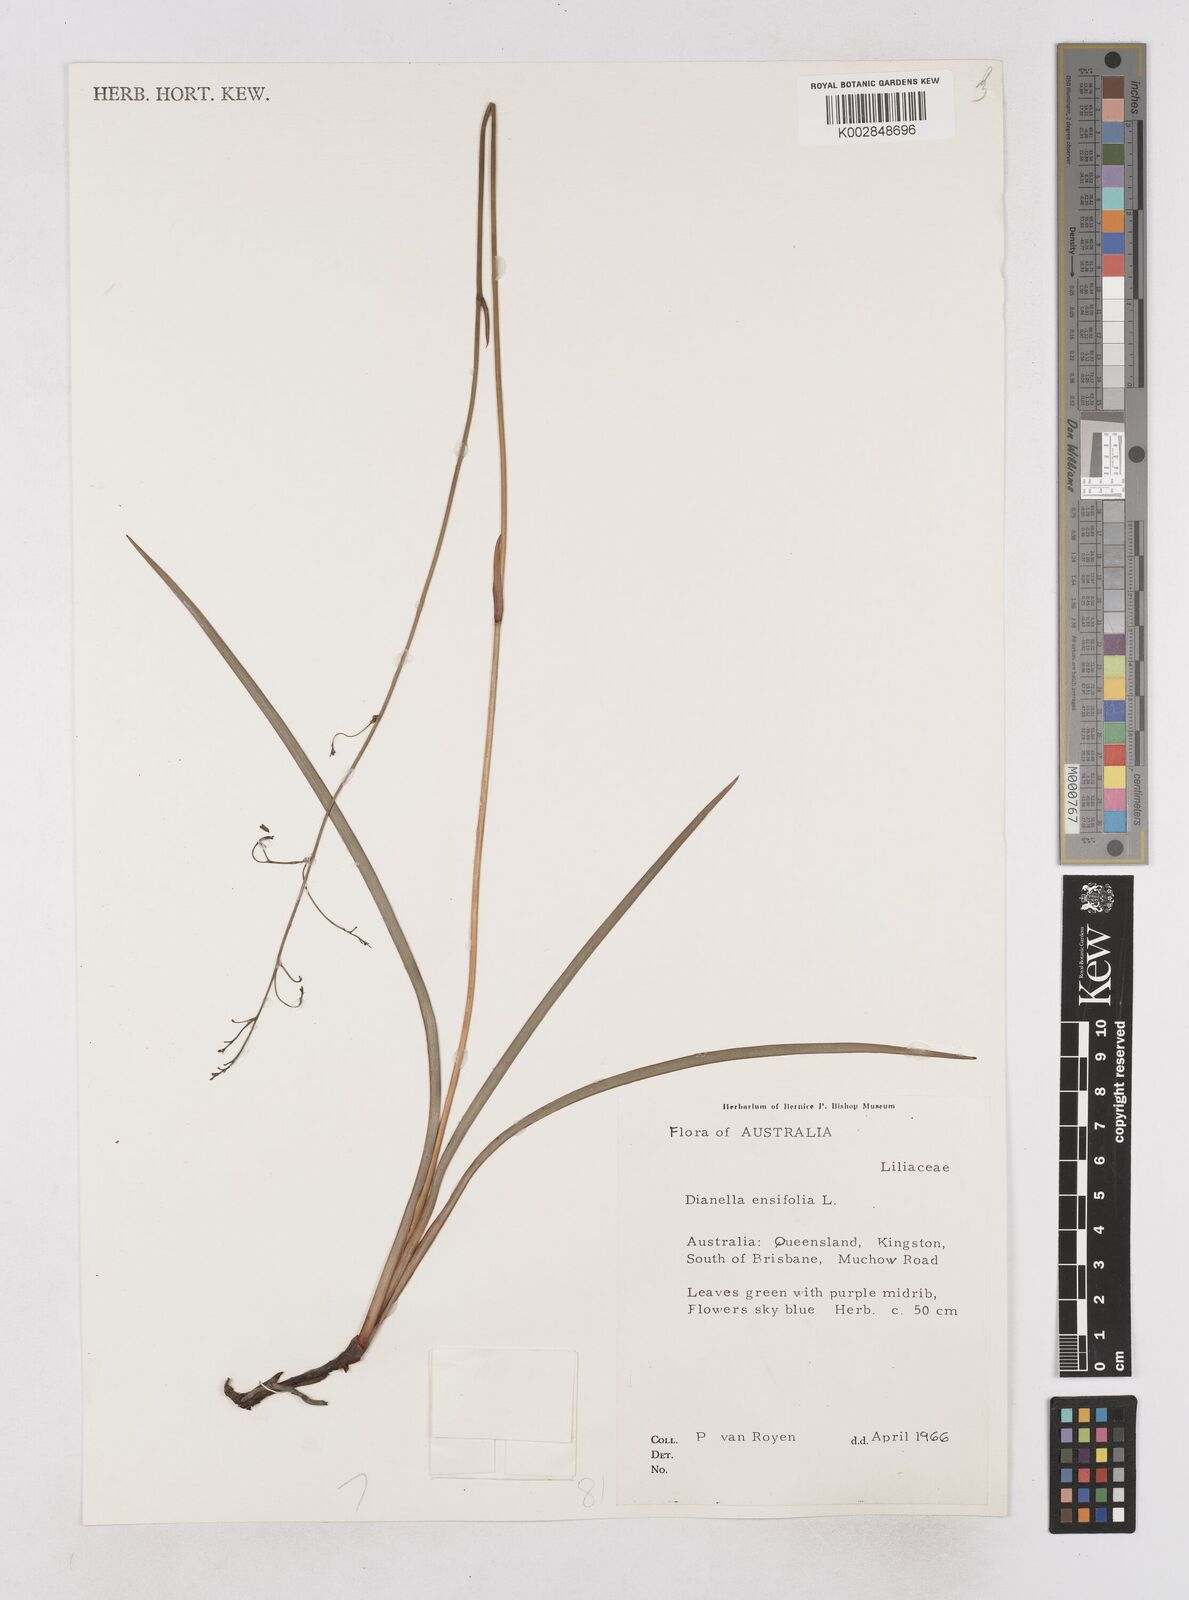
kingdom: Plantae
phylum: Tracheophyta
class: Liliopsida
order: Asparagales
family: Asphodelaceae
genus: Dianella
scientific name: Dianella ensifolia
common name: New zealand lilyplant
